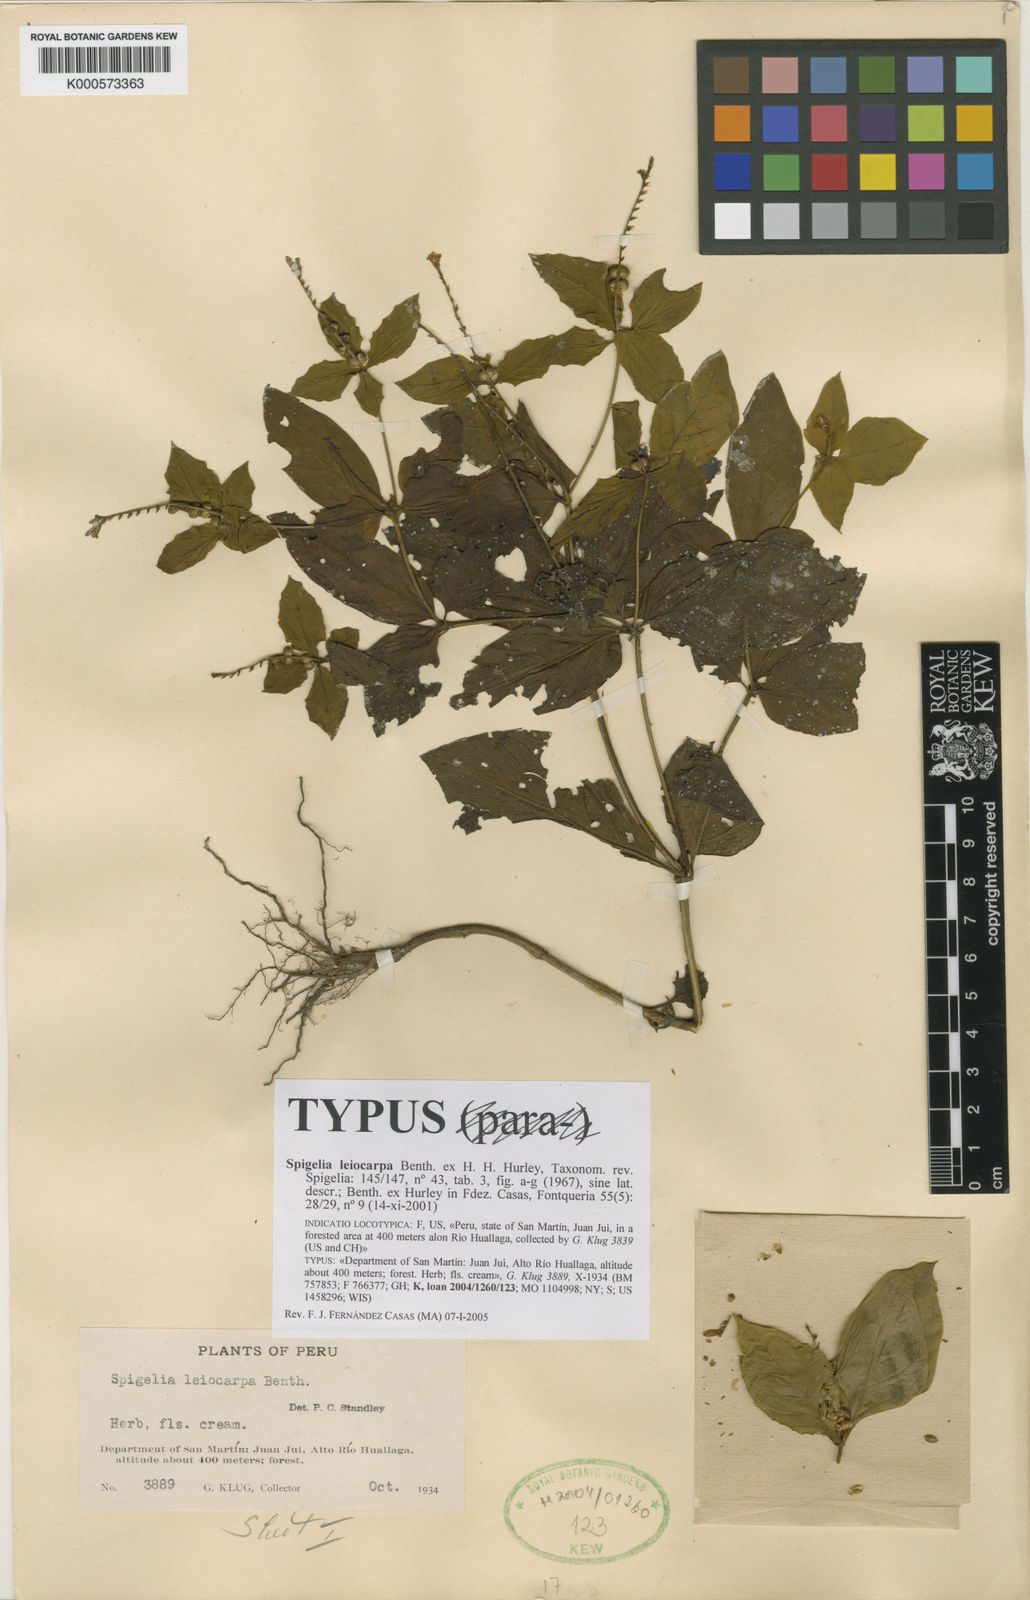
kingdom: Plantae
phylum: Tracheophyta
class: Magnoliopsida
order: Gentianales
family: Loganiaceae
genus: Spigelia
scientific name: Spigelia
